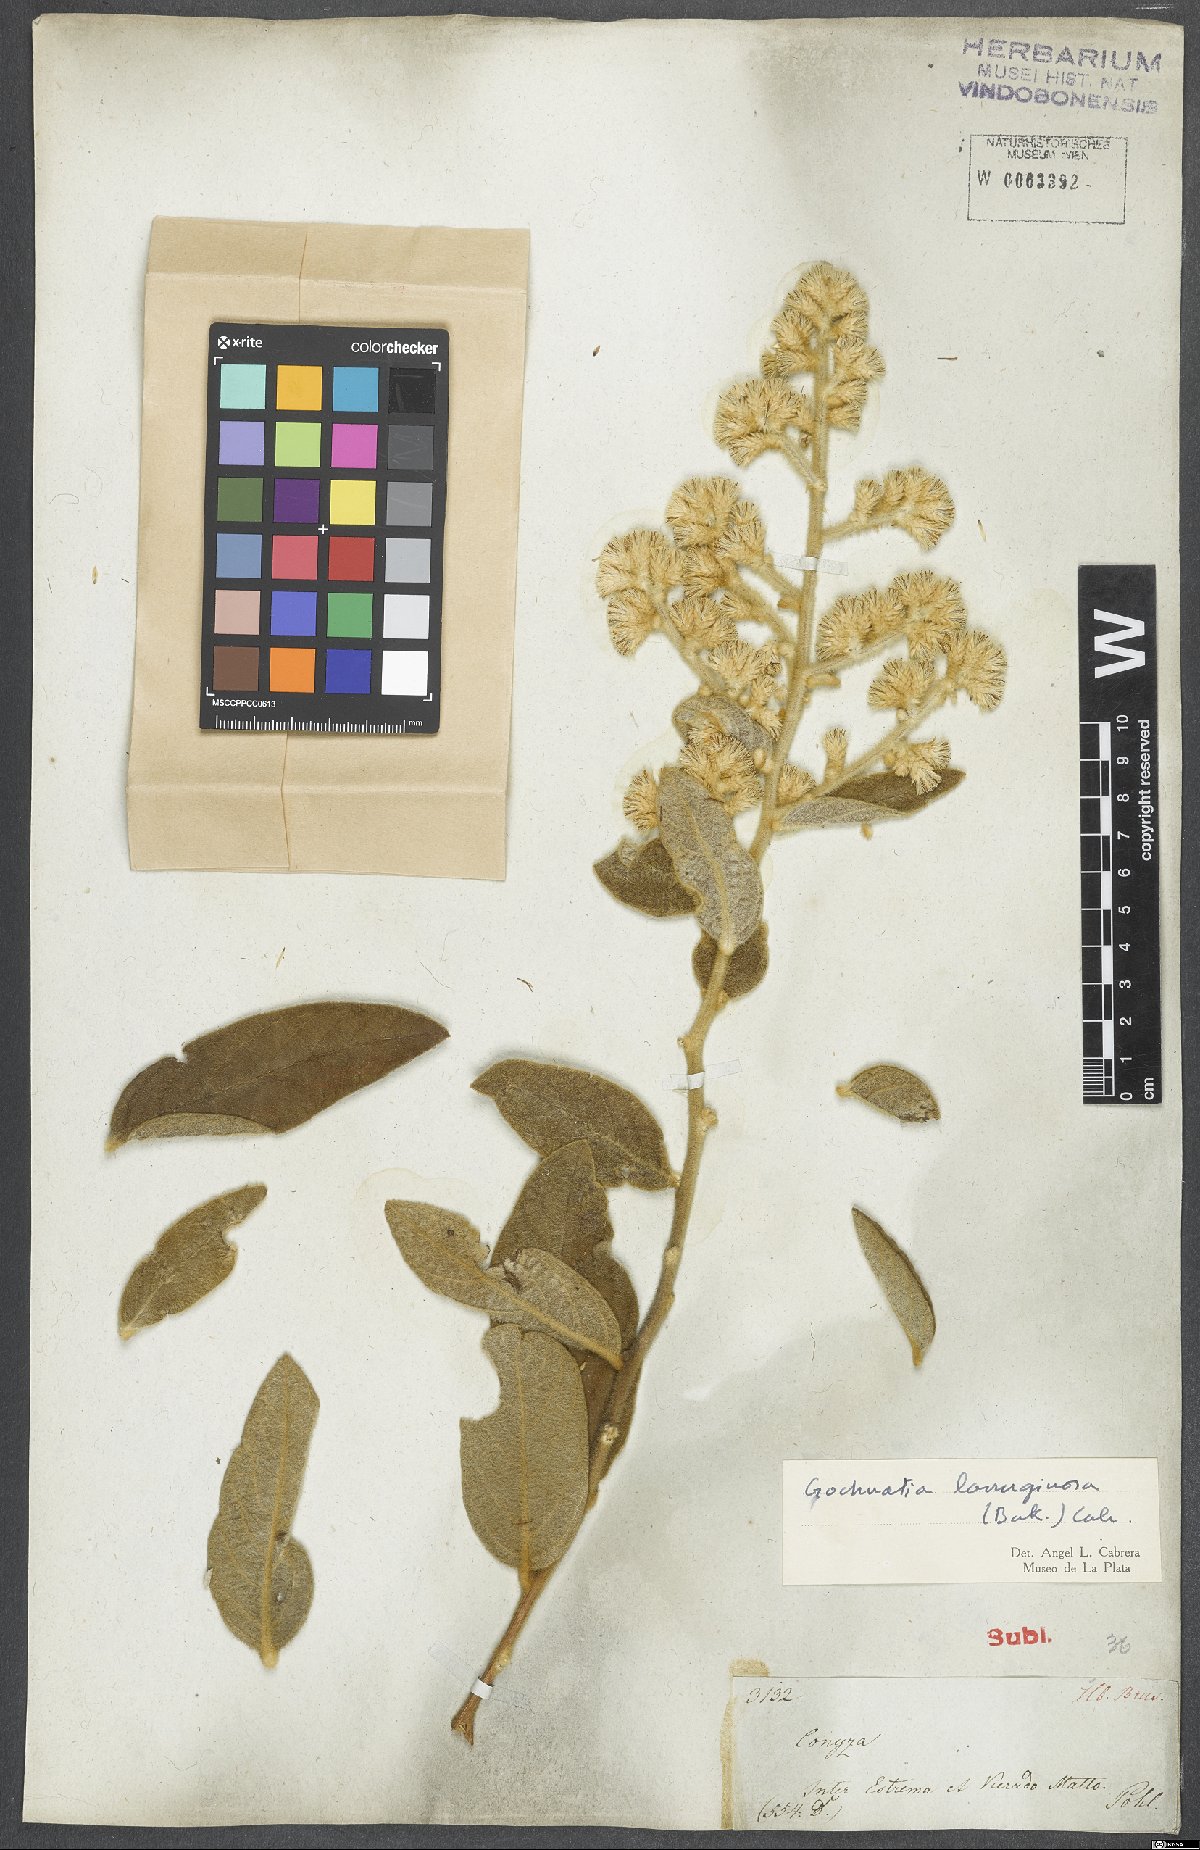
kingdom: Plantae
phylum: Tracheophyta
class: Magnoliopsida
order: Asterales
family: Asteraceae
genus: Moquiniastrum
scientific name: Moquiniastrum paniculatum
